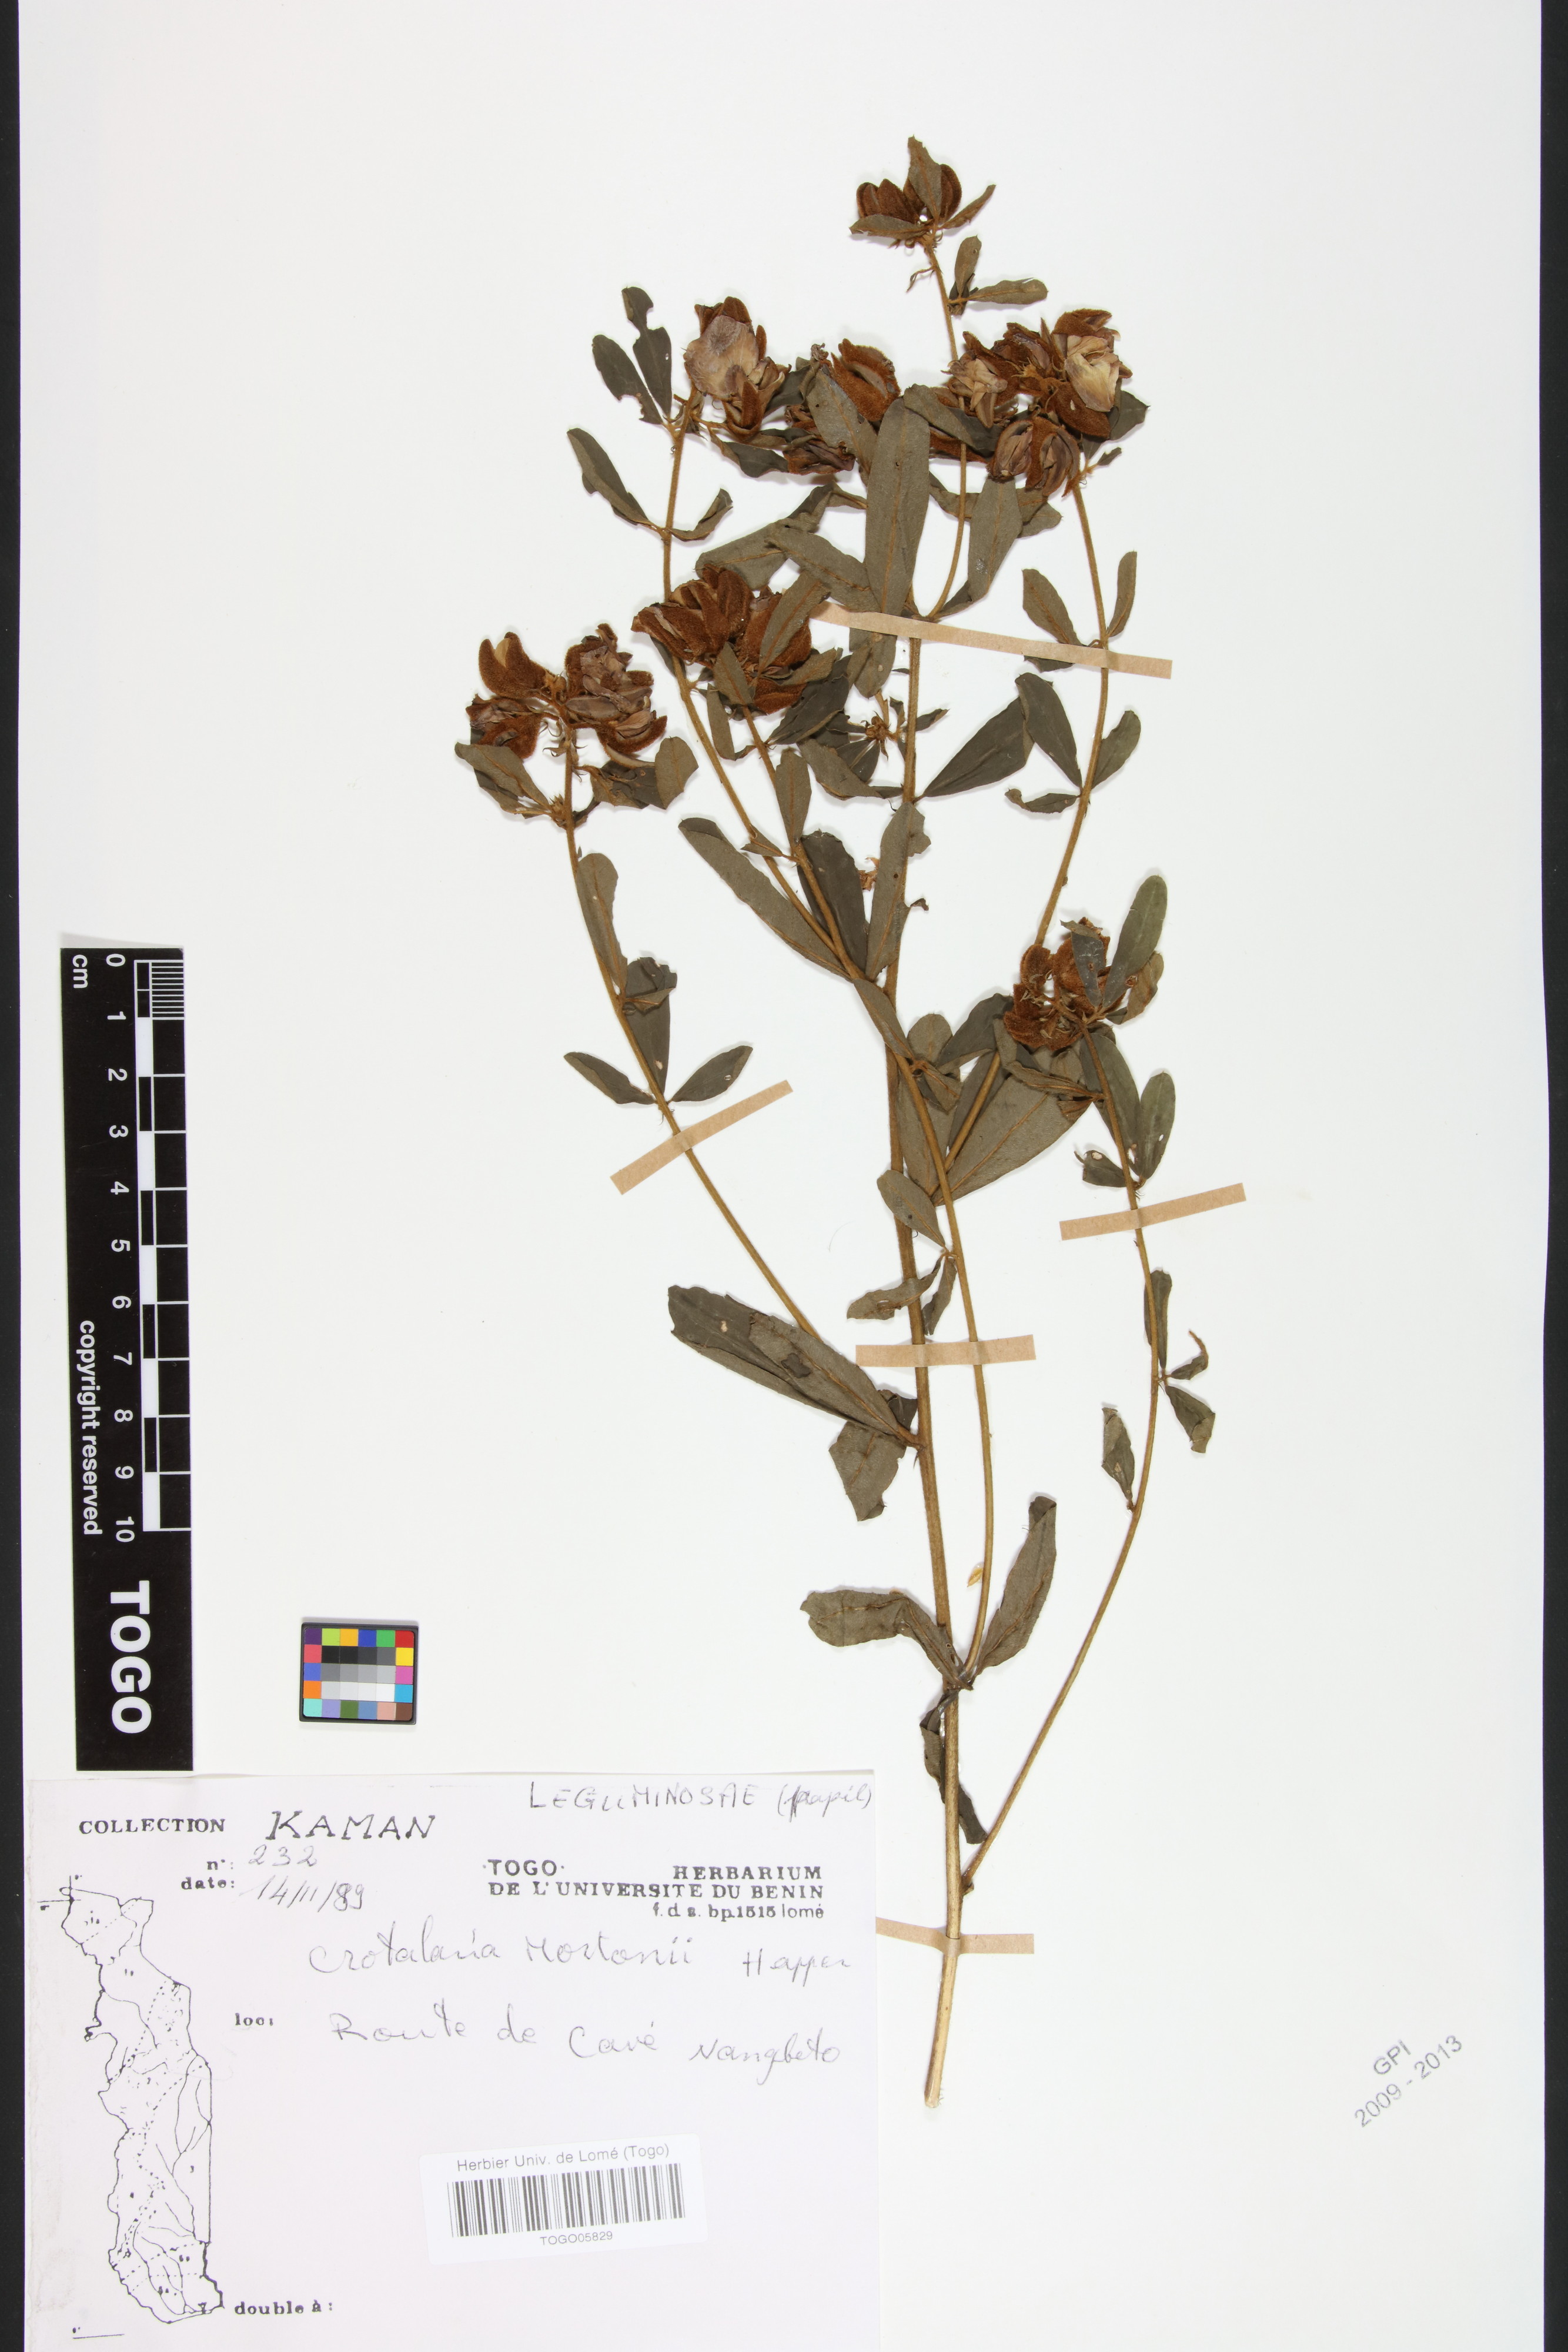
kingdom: Plantae
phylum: Tracheophyta
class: Magnoliopsida
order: Fabales
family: Fabaceae
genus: Crotalaria
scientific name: Crotalaria mortonii
